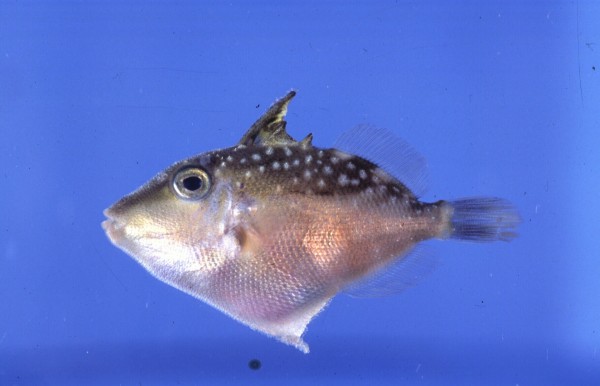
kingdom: Animalia
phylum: Chordata
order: Tetraodontiformes
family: Balistidae
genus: Sufflamen
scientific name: Sufflamen fraenatum
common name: Bridle triggerfish
